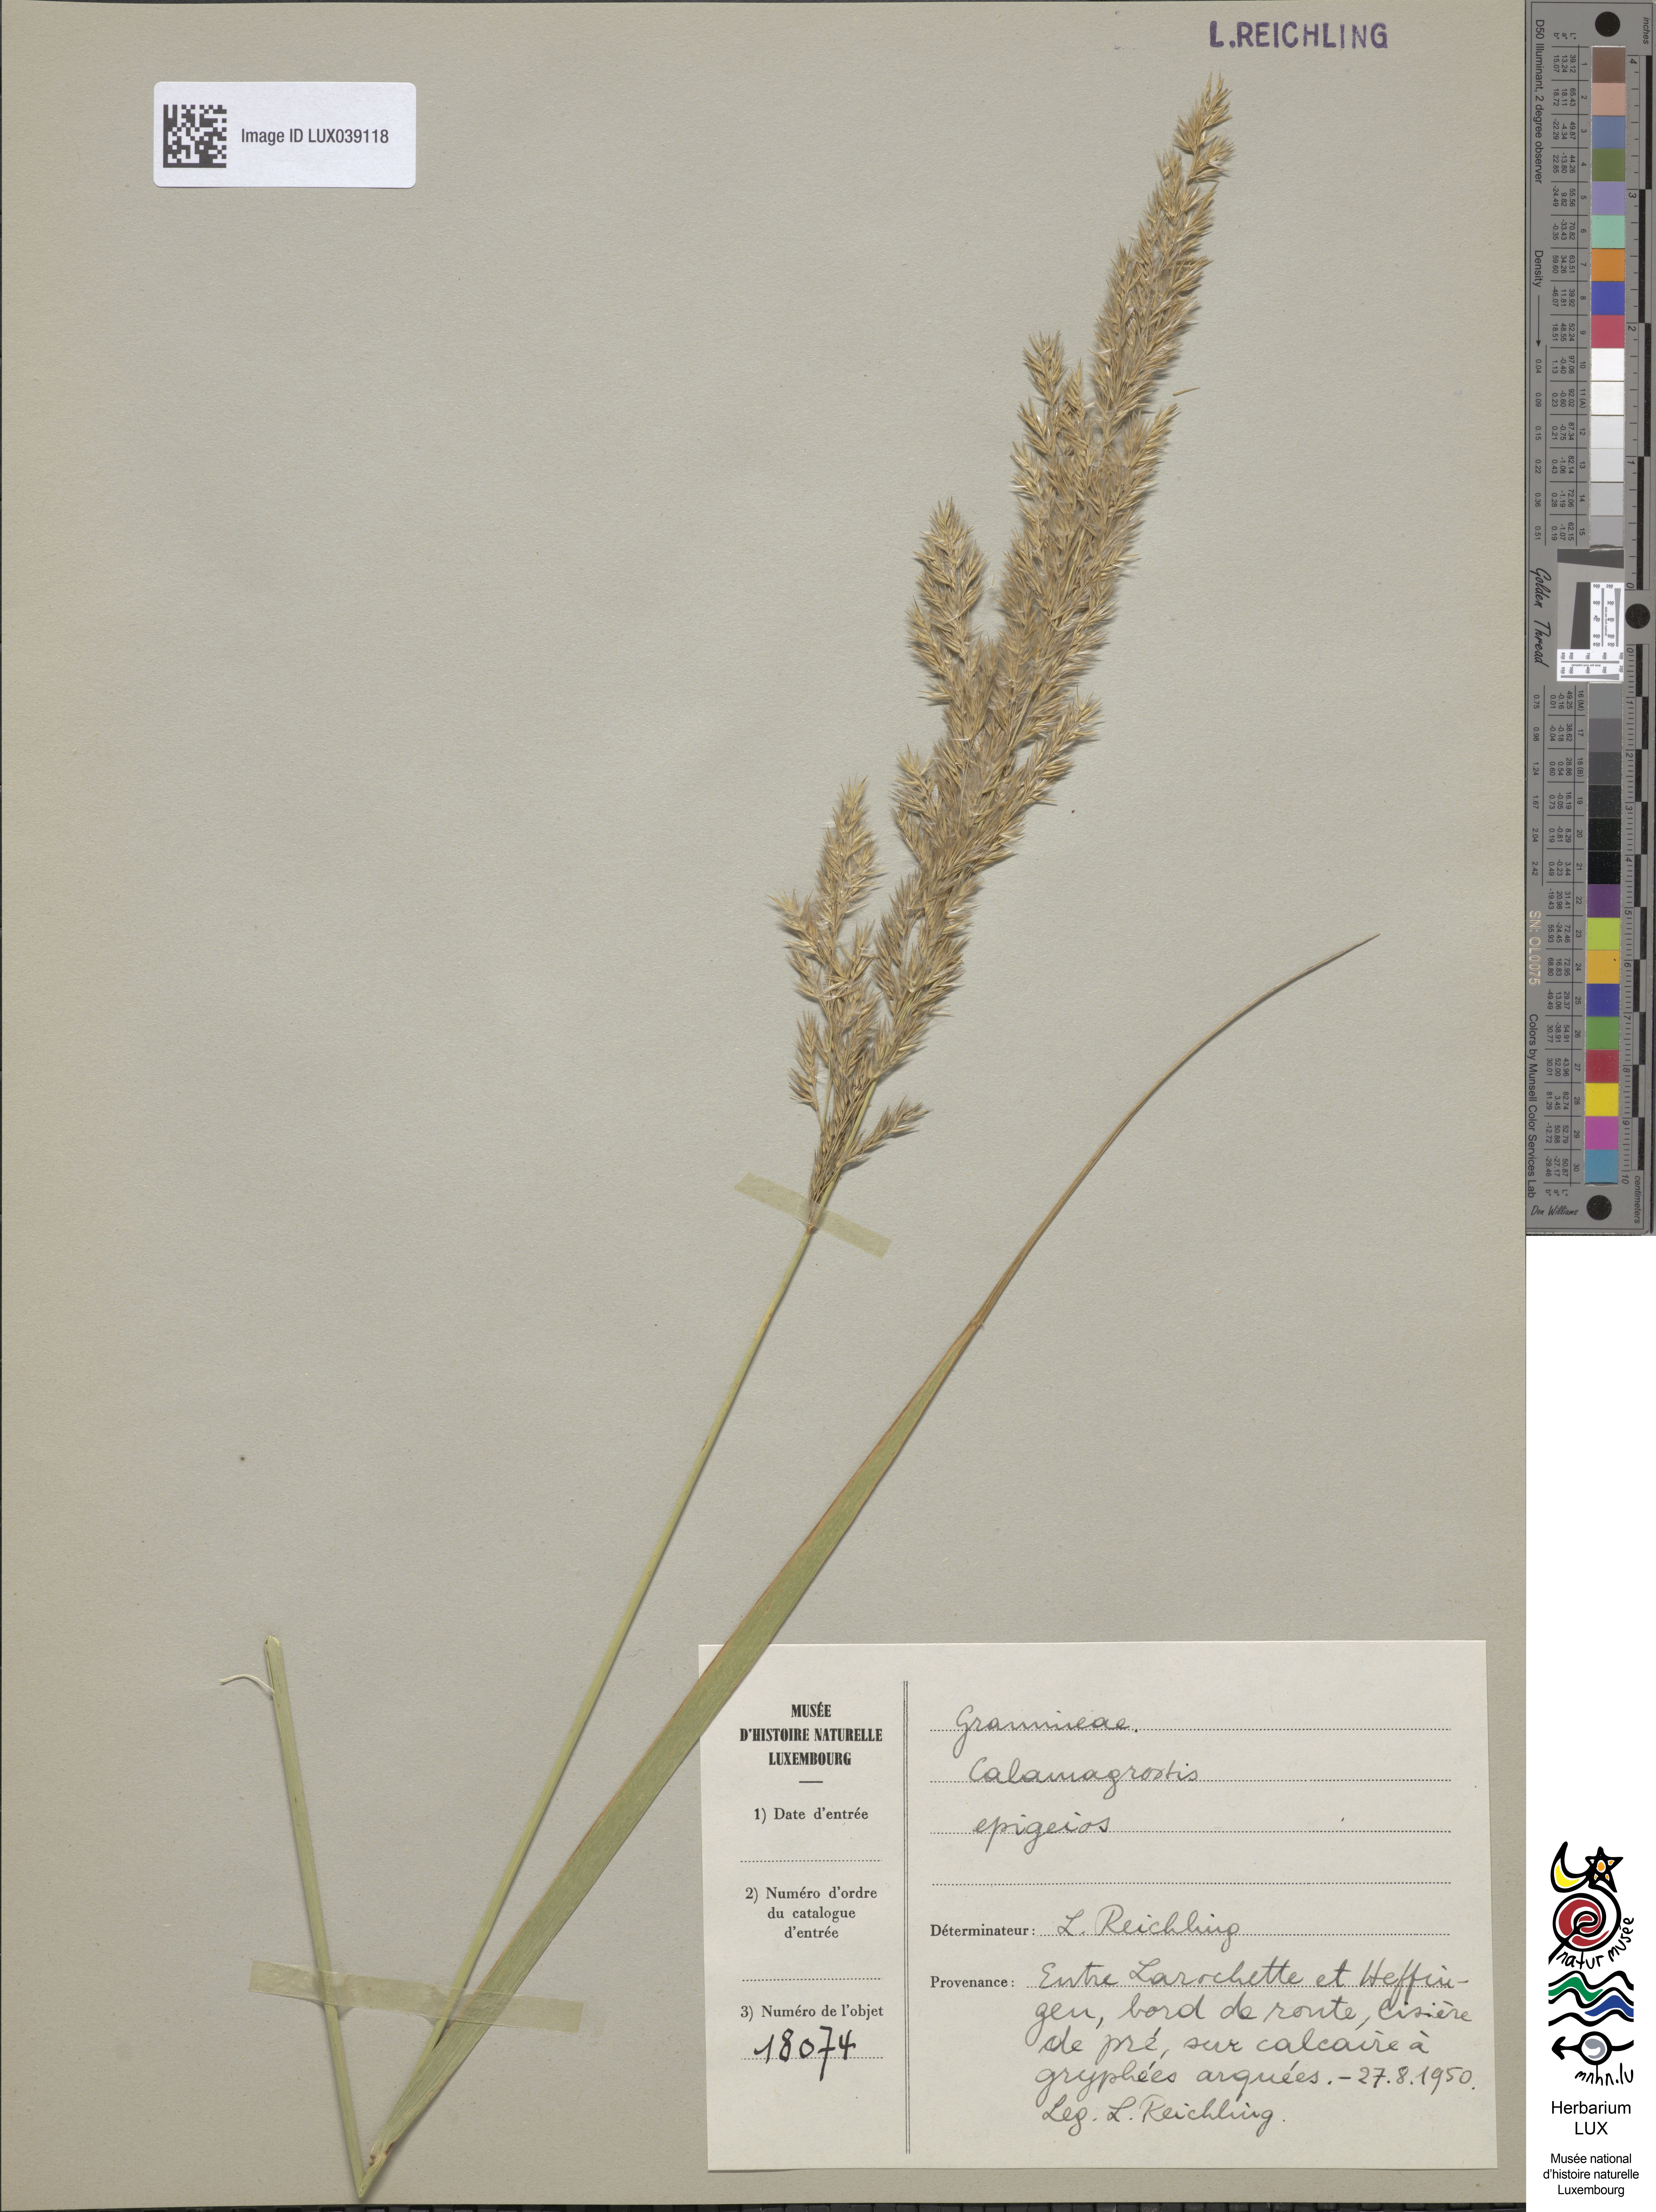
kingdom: Plantae
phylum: Tracheophyta
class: Liliopsida
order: Poales
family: Poaceae
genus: Calamagrostis
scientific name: Calamagrostis epigejos
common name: Wood small-reed
